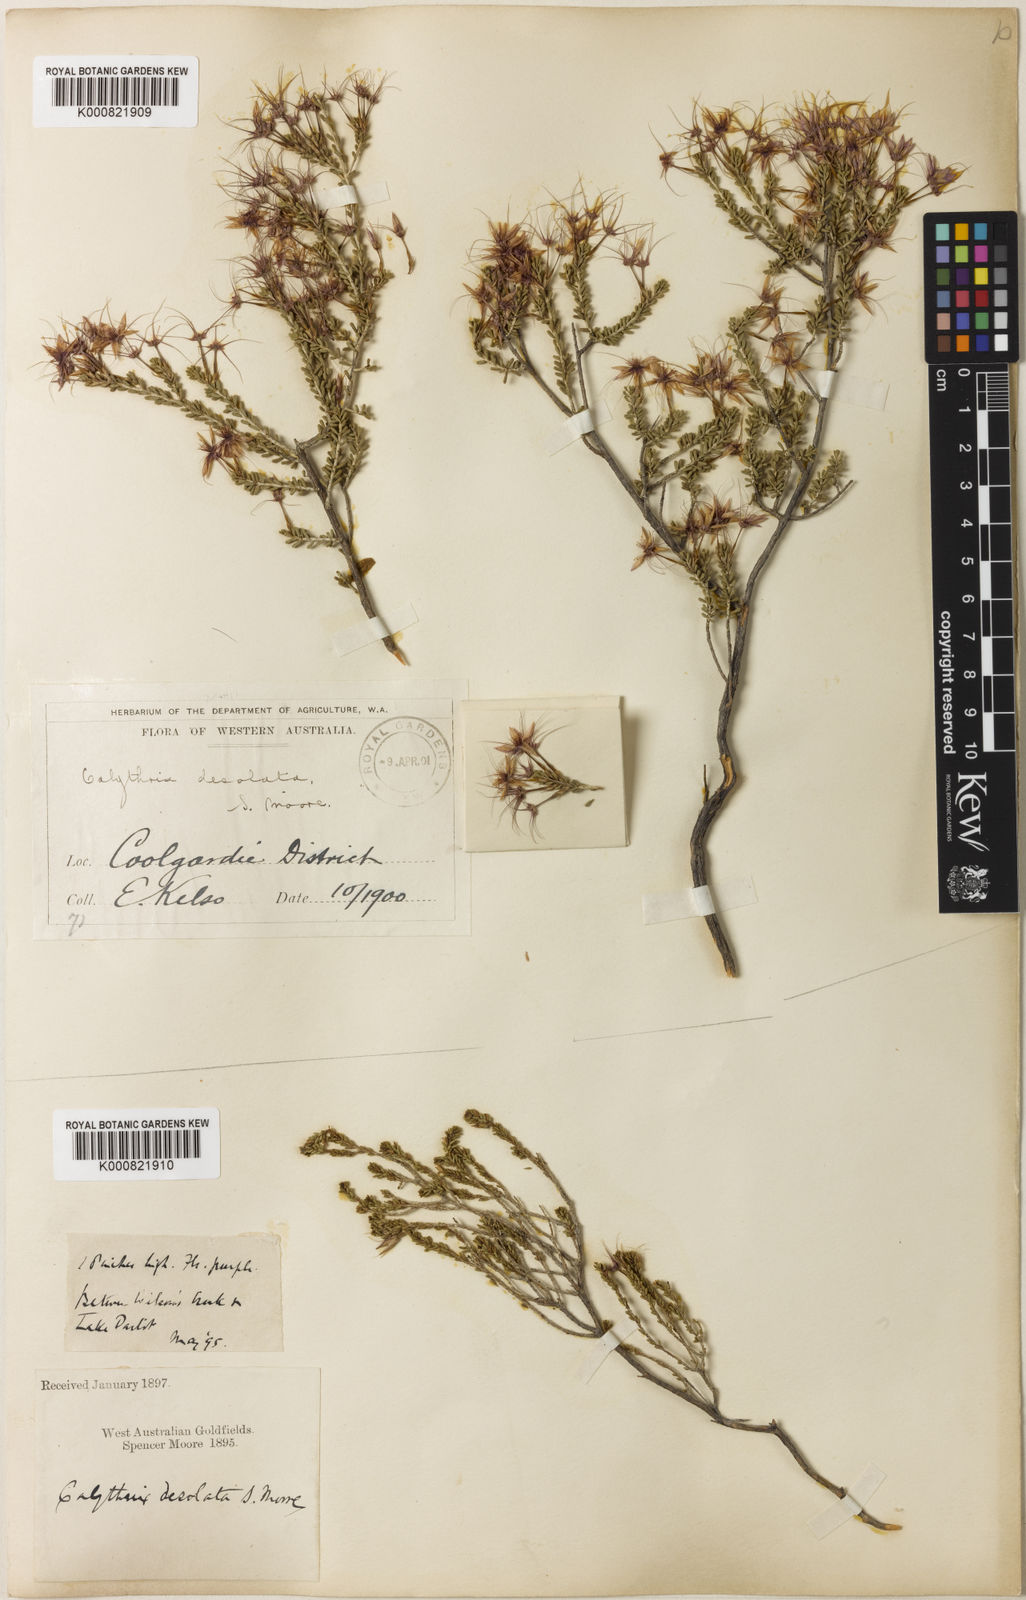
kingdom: Plantae
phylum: Tracheophyta
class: Magnoliopsida
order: Myrtales
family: Myrtaceae
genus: Calytrix
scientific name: Calytrix desolata
